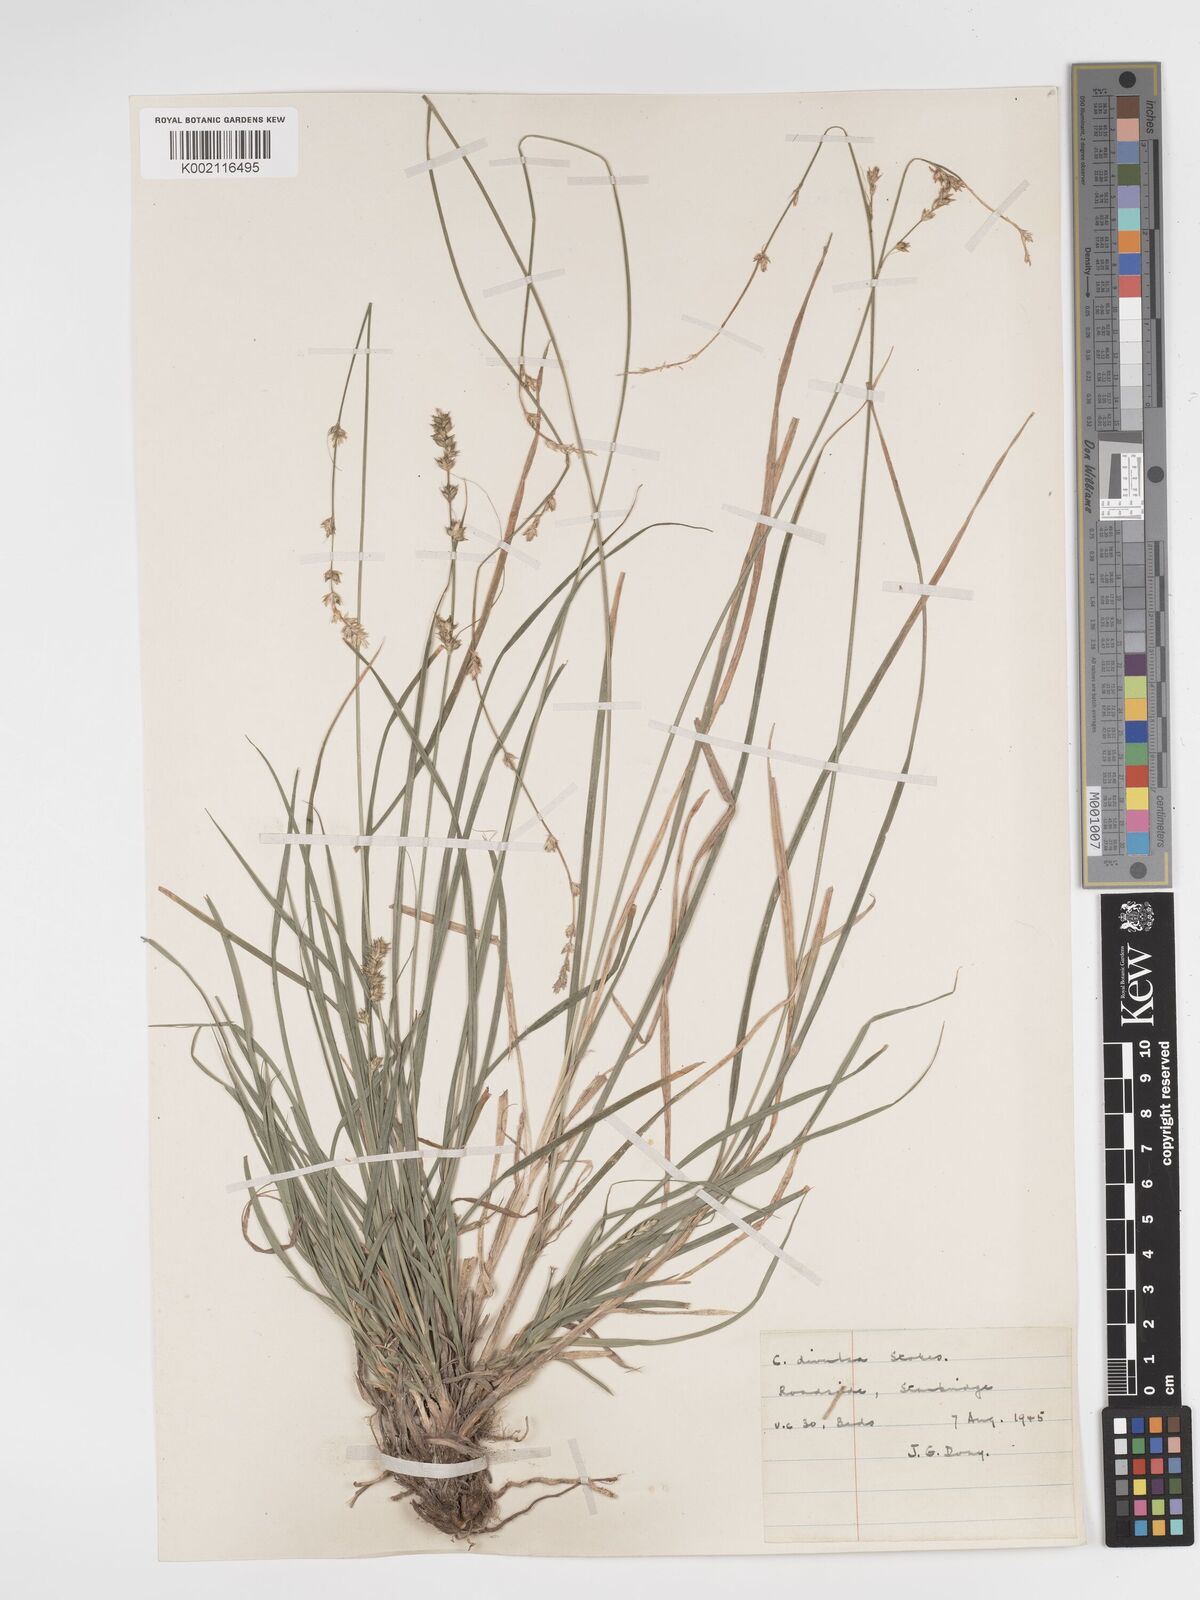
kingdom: Plantae
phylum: Tracheophyta
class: Liliopsida
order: Poales
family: Cyperaceae
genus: Carex
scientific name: Carex divulsa
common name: Grassland sedge
